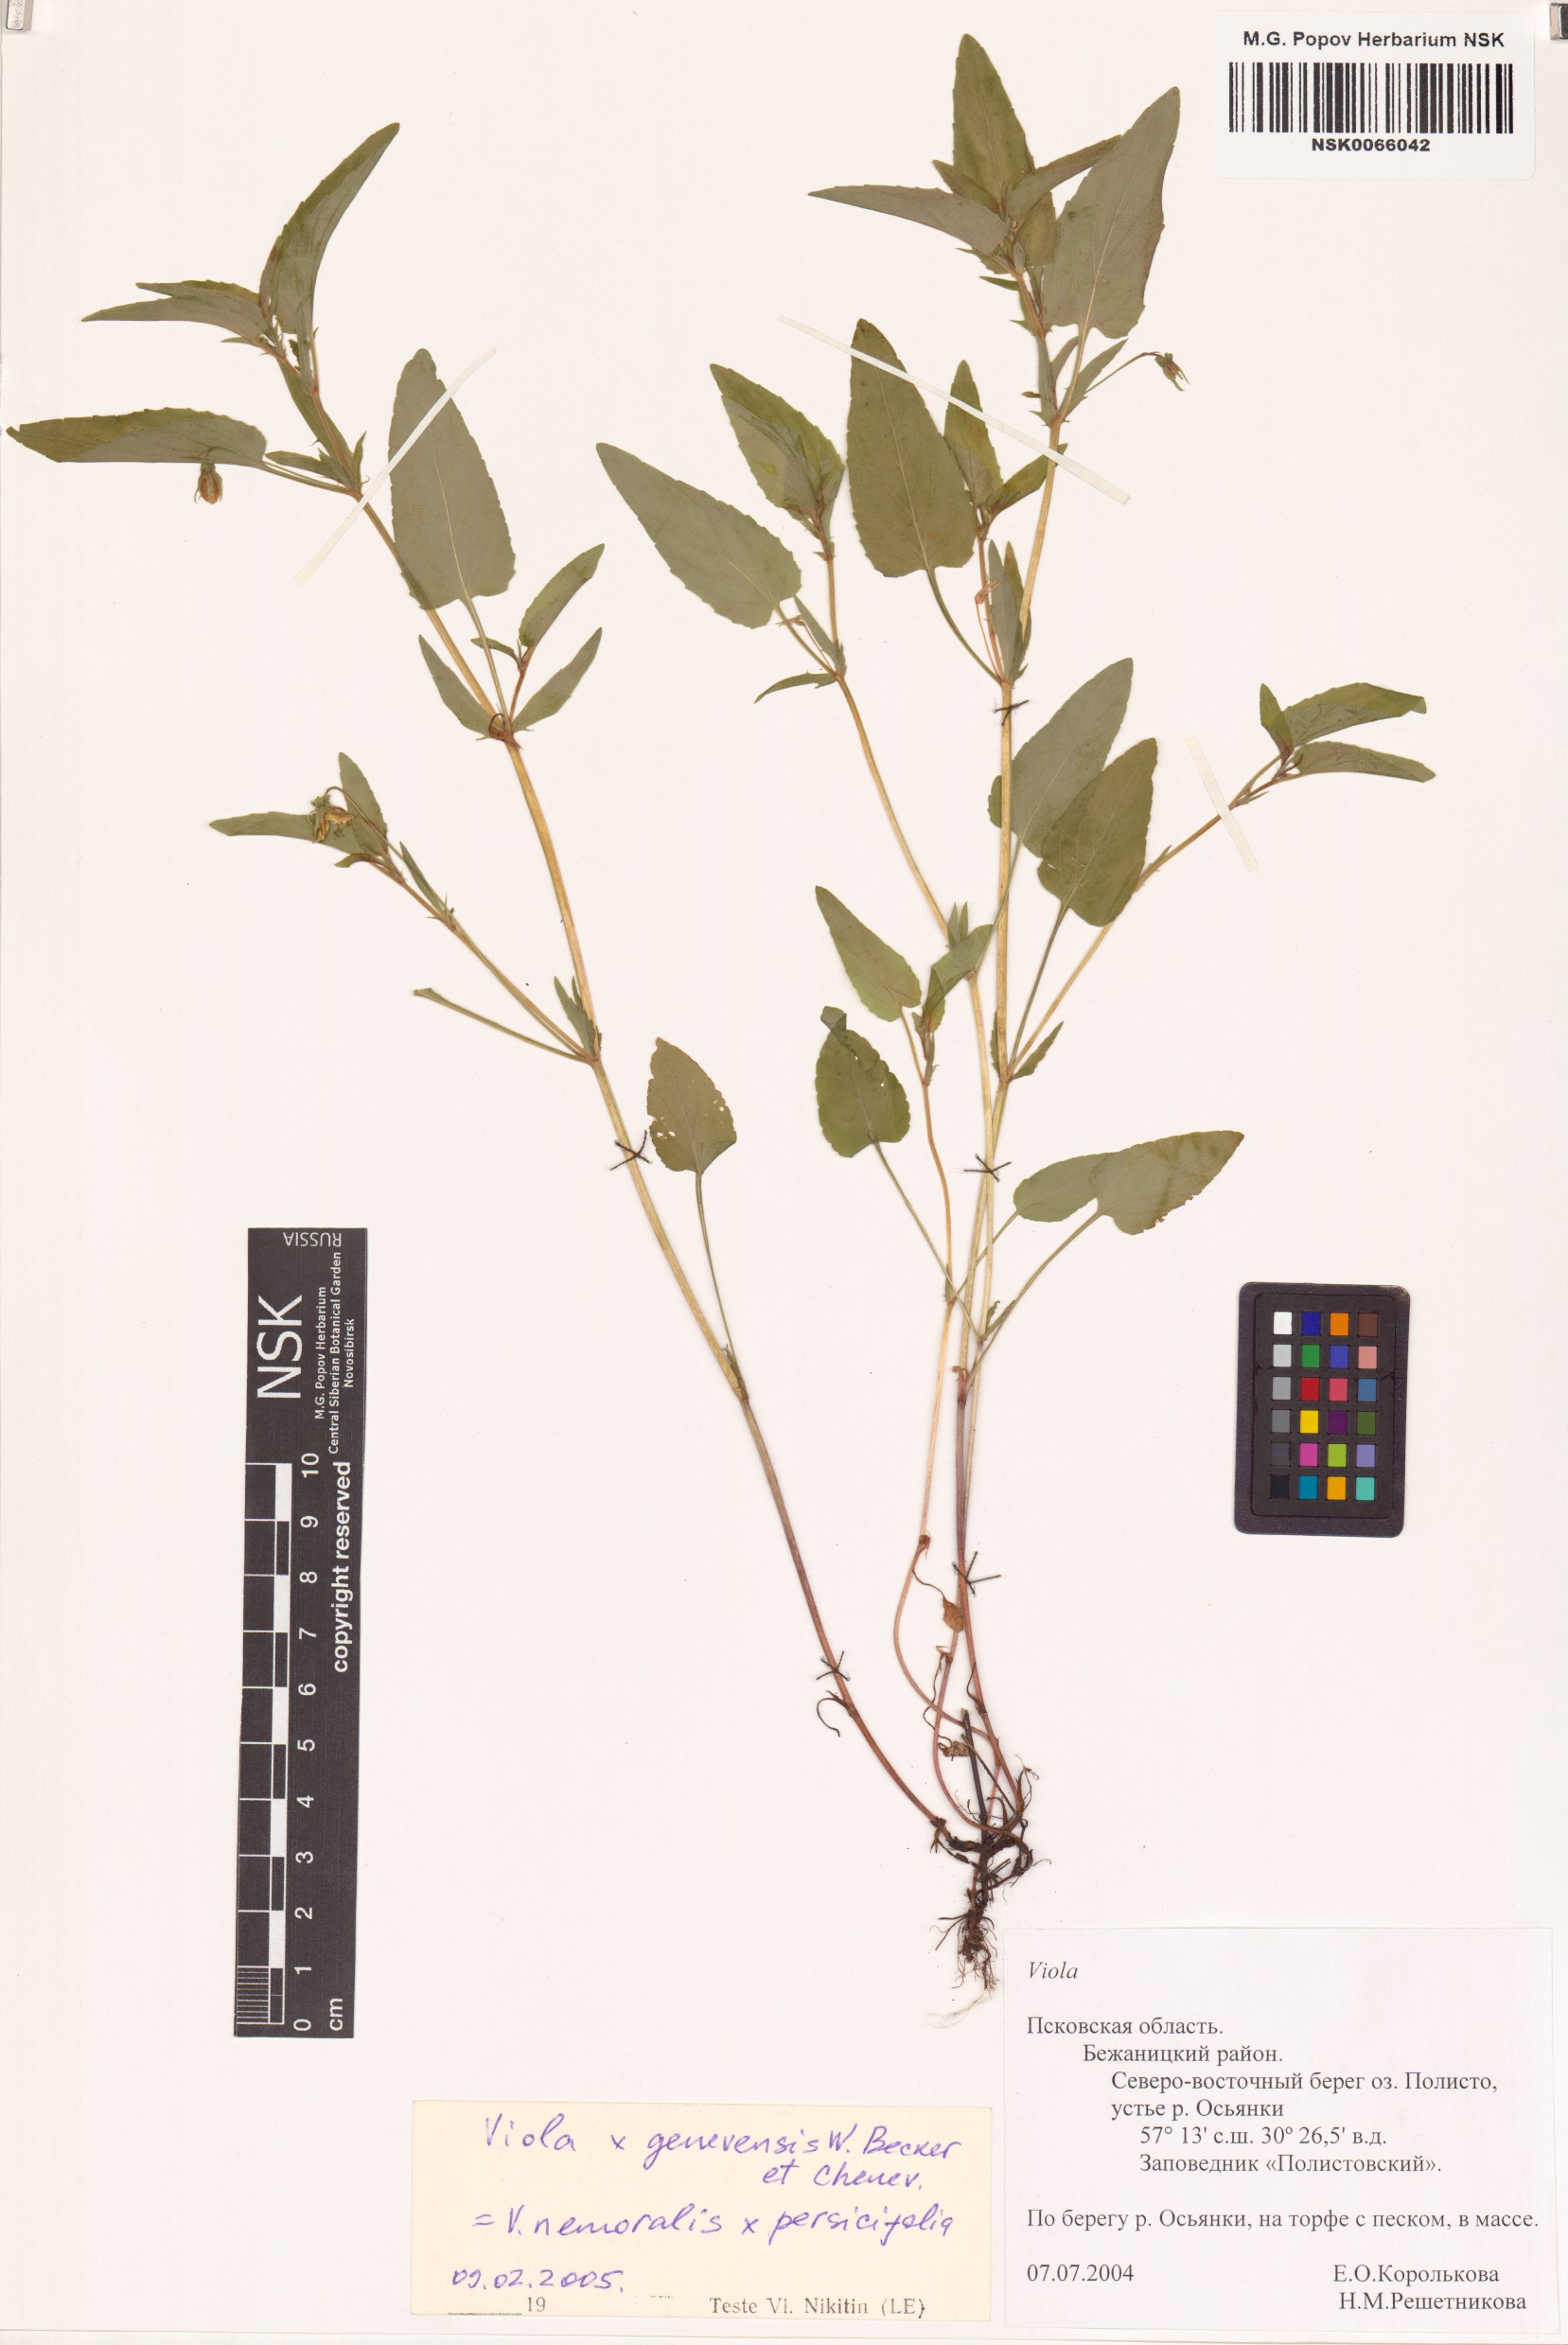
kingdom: Plantae
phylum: Tracheophyta
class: Magnoliopsida
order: Malpighiales
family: Violaceae
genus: Viola
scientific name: Viola ritschliana
